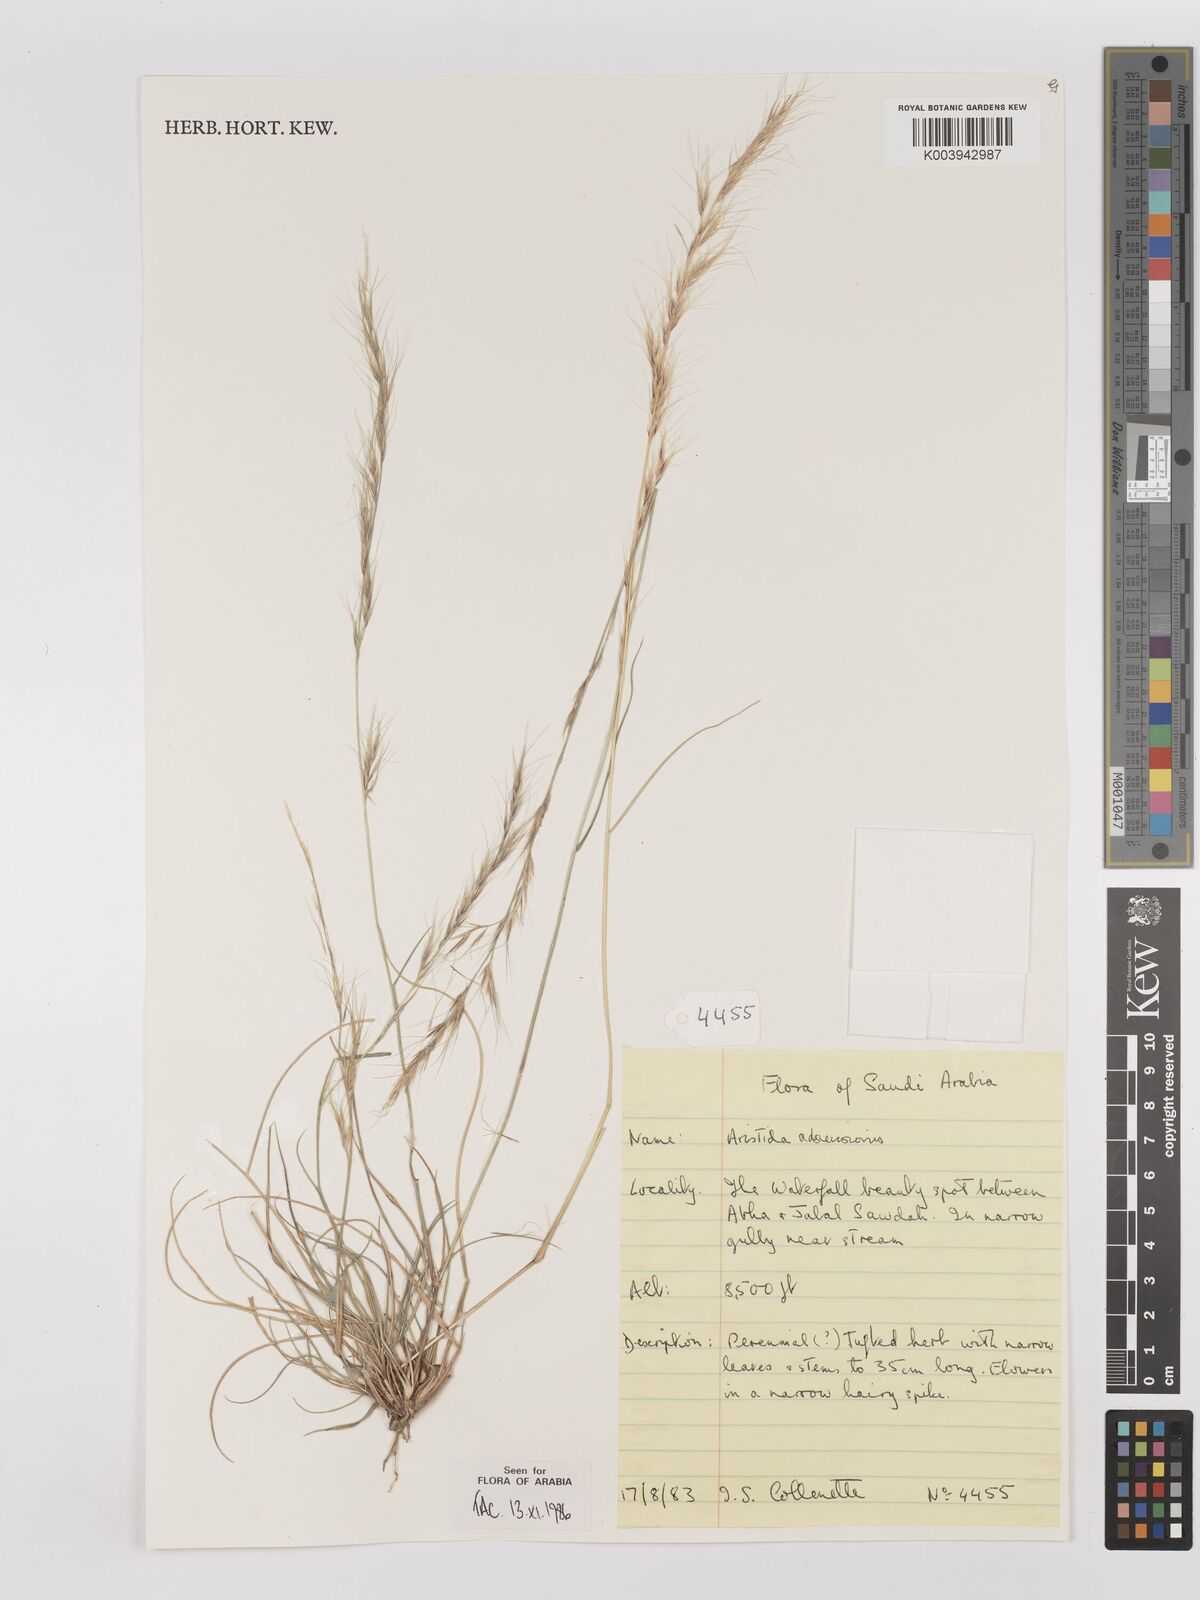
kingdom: Plantae
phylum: Tracheophyta
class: Liliopsida
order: Poales
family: Poaceae
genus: Aristida
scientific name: Aristida adscensionis
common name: Sixweeks threeawn
